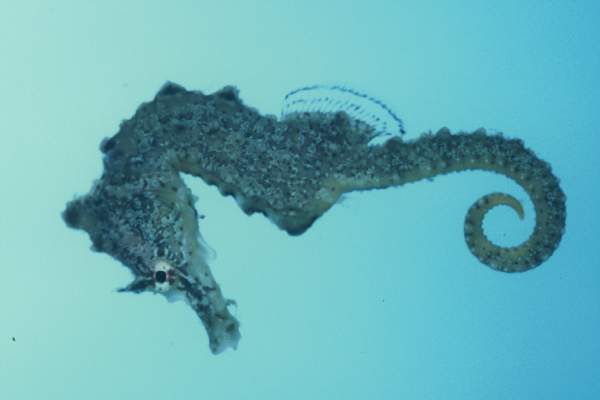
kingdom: Animalia
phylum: Chordata
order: Syngnathiformes
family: Syngnathidae
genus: Hippocampus
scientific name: Hippocampus camelopardalis
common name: Giraffe seahorse
